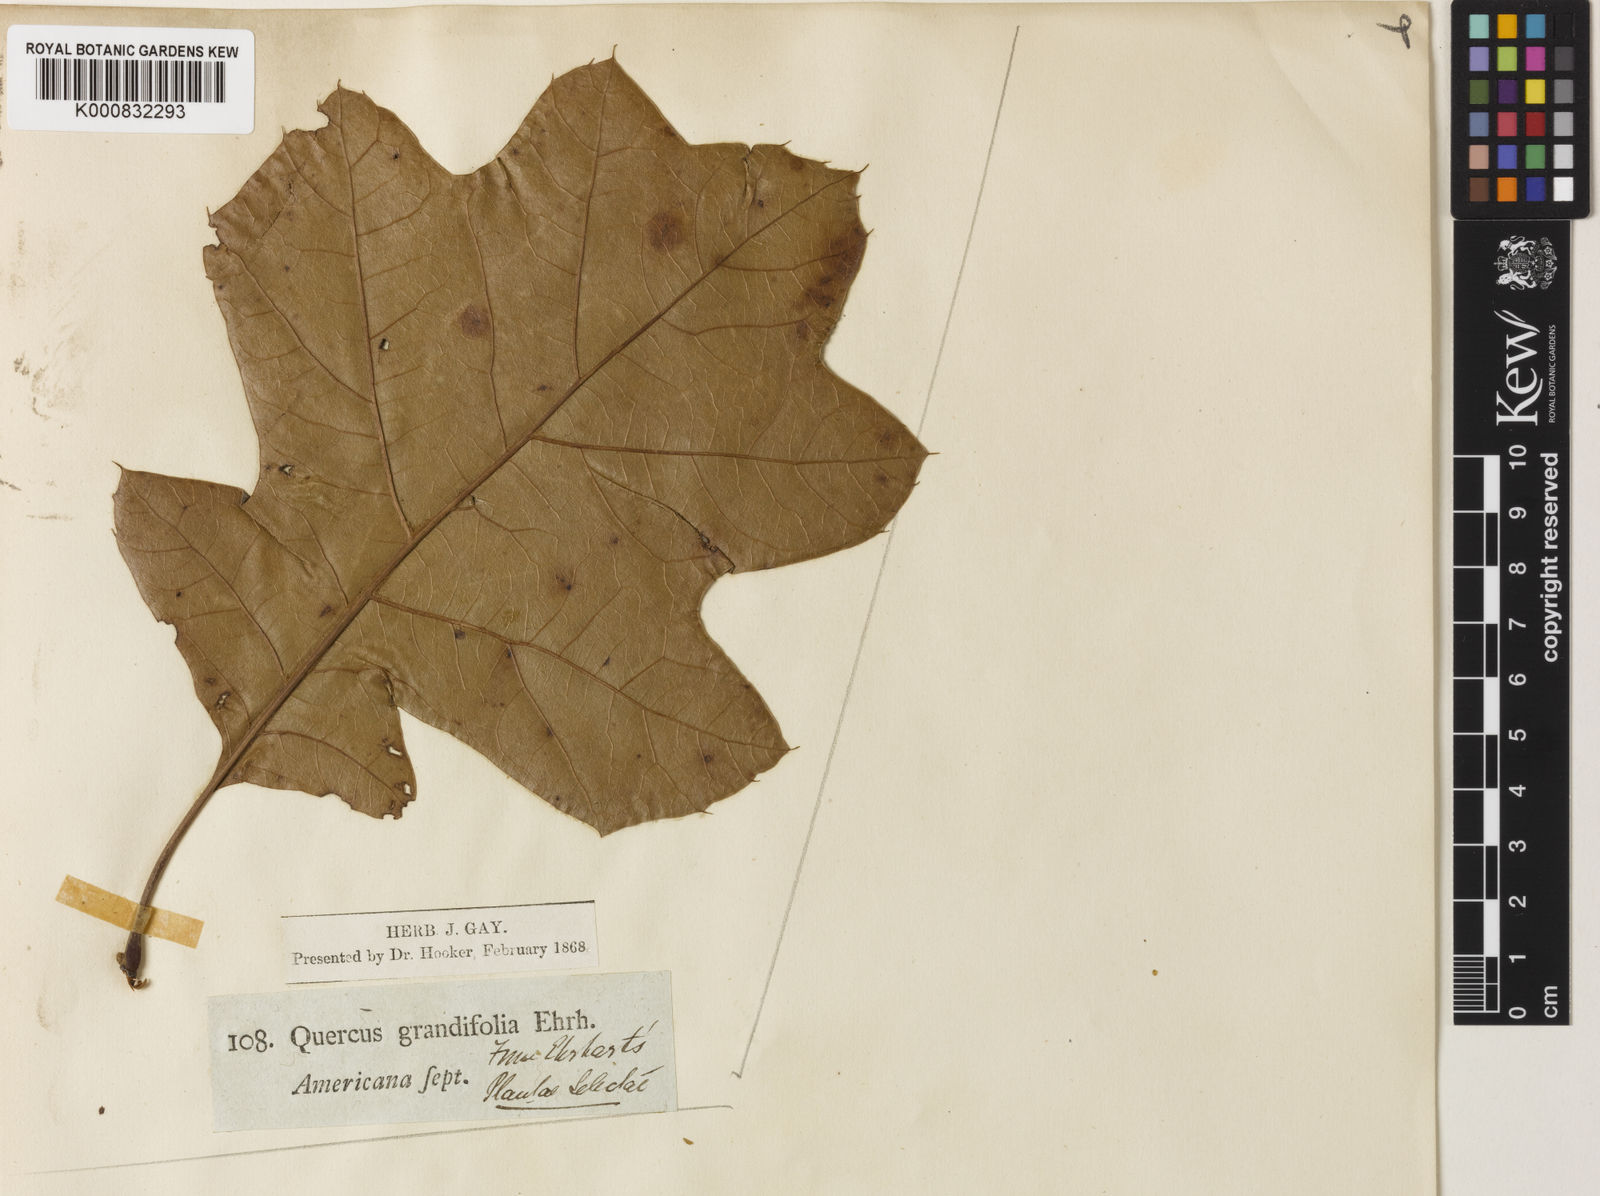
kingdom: Plantae
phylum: Tracheophyta
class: Magnoliopsida
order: Fagales
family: Fagaceae
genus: Quercus
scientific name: Quercus
